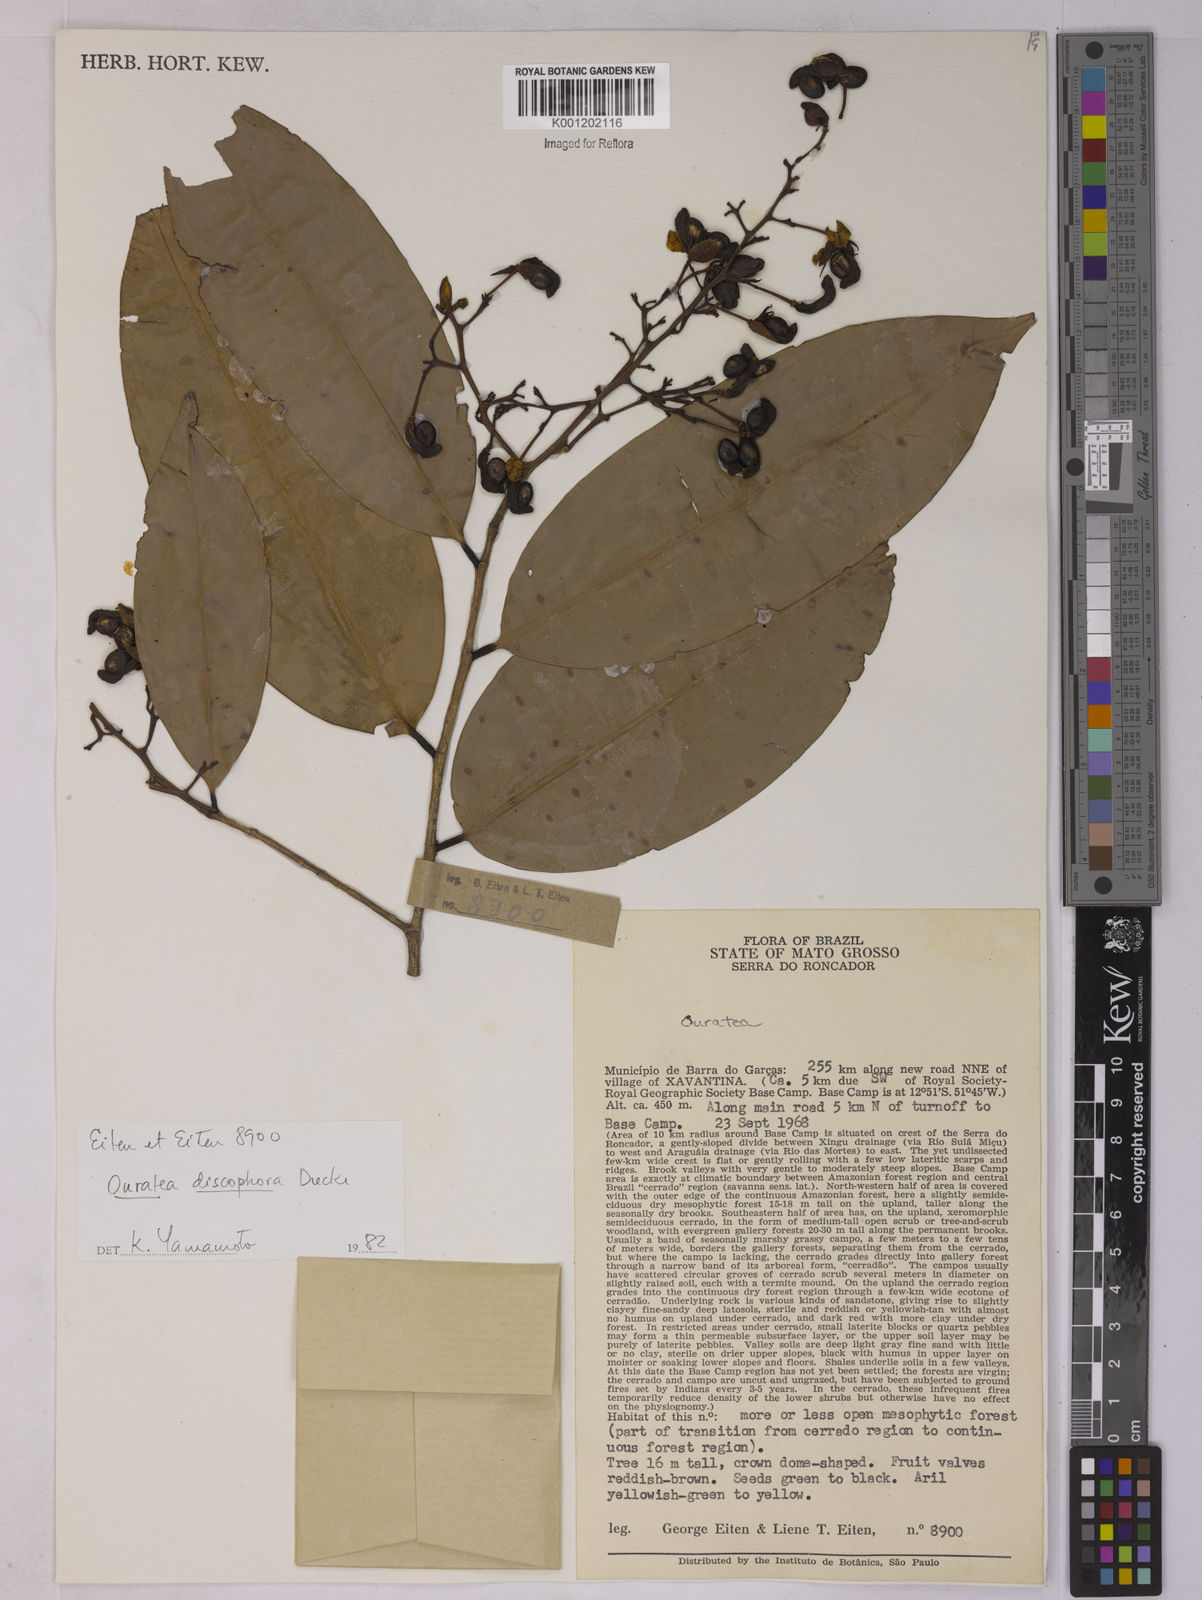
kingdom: Plantae
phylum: Tracheophyta
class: Magnoliopsida
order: Malpighiales
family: Ochnaceae
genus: Ouratea
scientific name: Ouratea discophora
